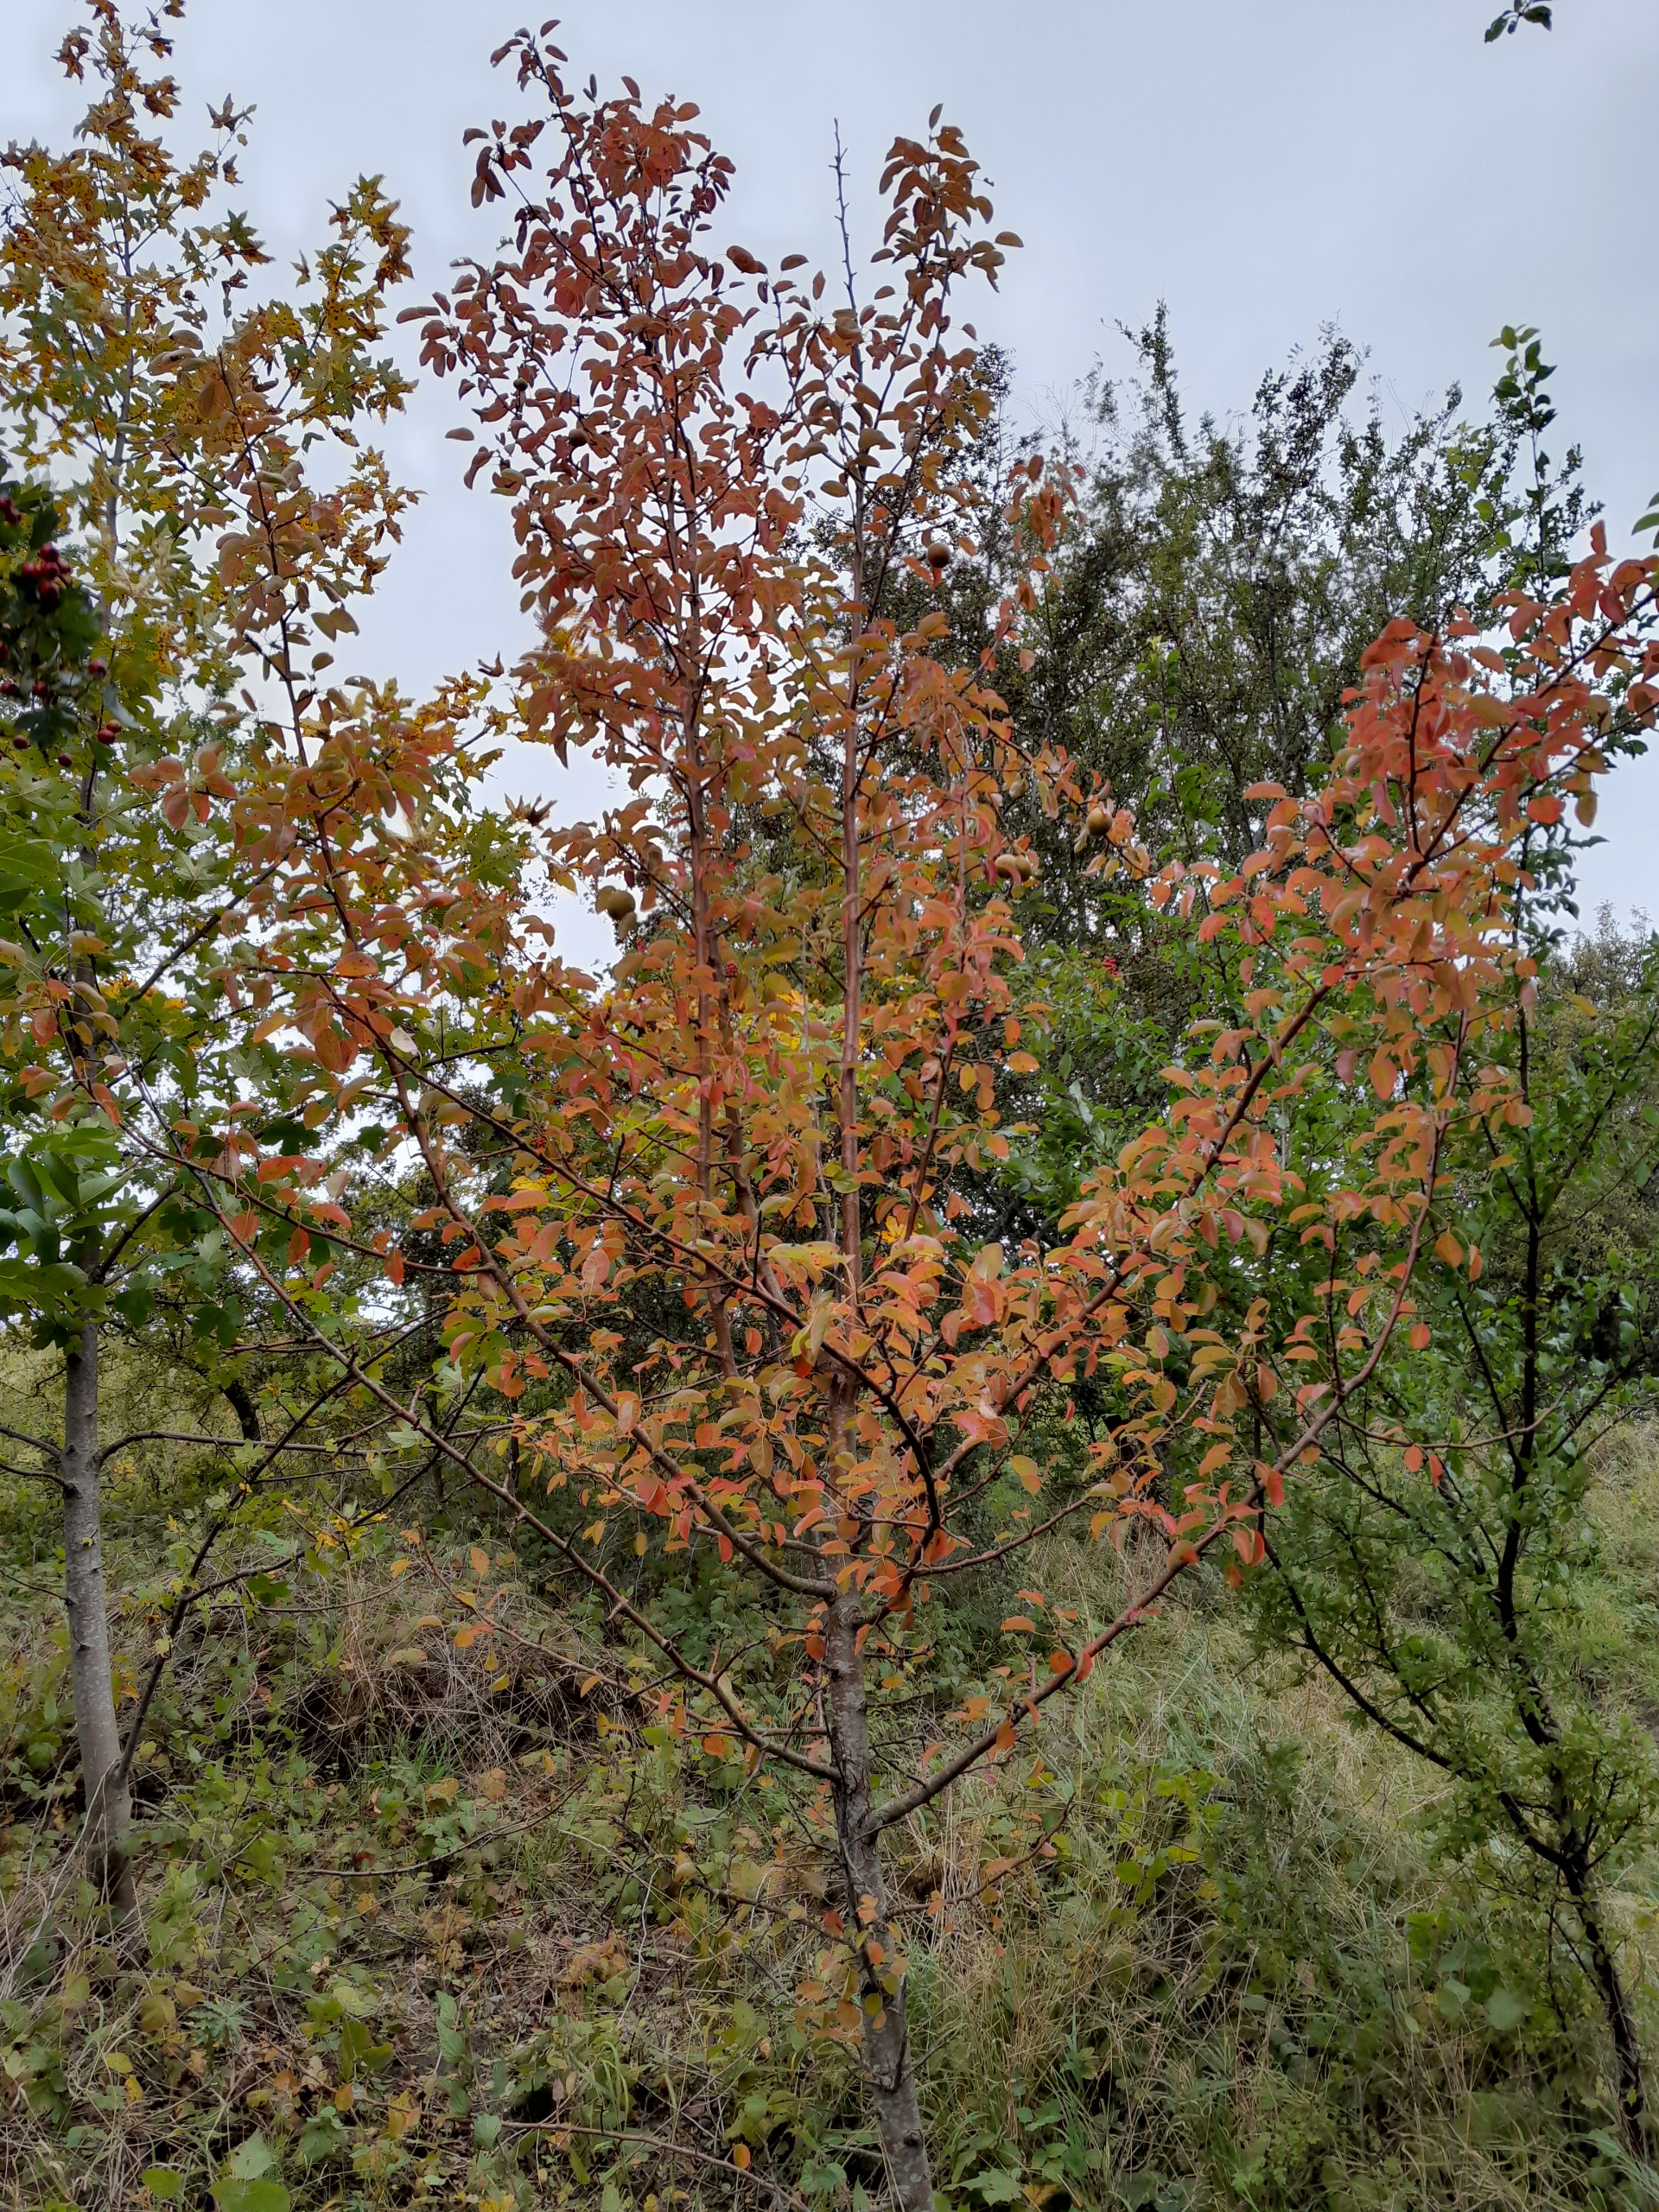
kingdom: Plantae
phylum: Tracheophyta
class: Magnoliopsida
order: Rosales
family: Rosaceae
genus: Pyrus
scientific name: Pyrus communis
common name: Pære
